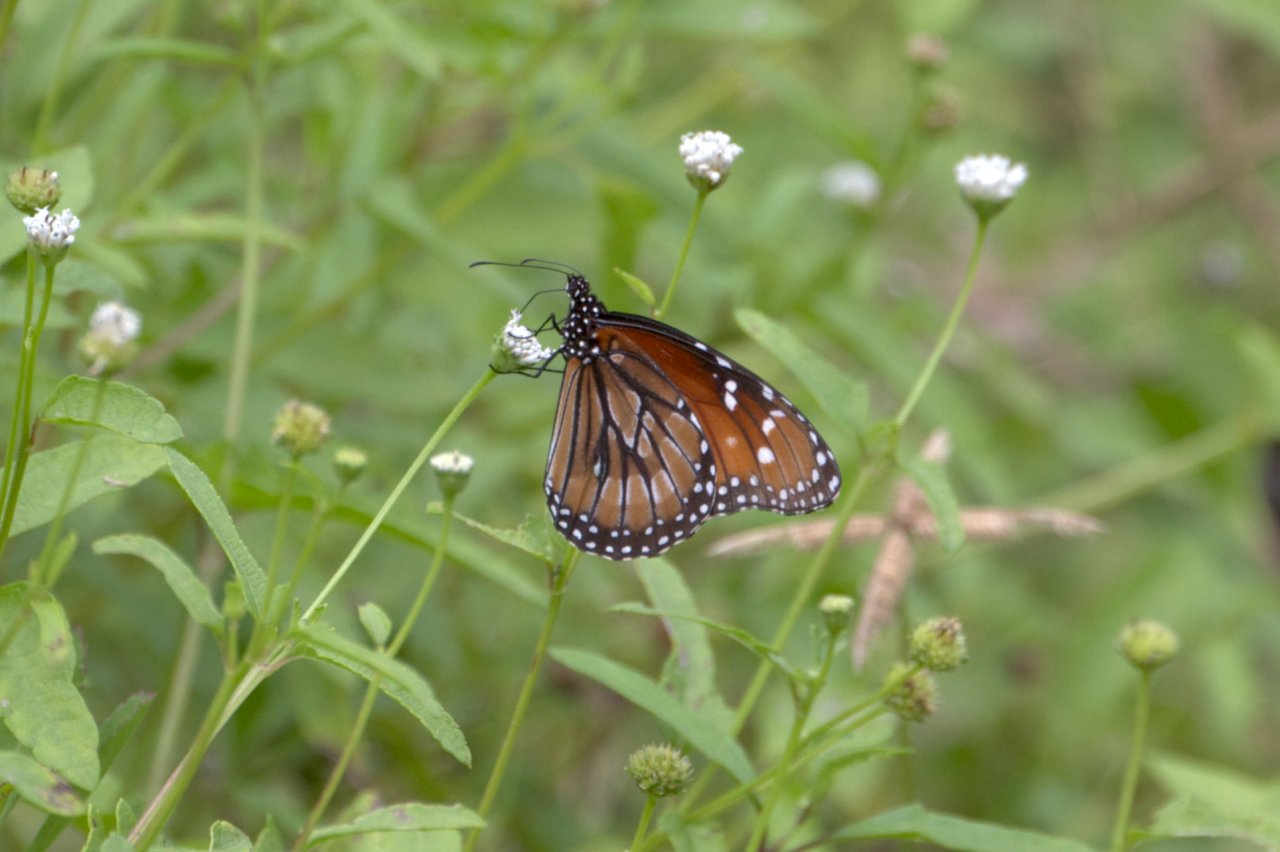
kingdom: Animalia
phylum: Arthropoda
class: Insecta
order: Lepidoptera
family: Nymphalidae
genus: Danaus
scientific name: Danaus eresimus
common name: Soldier
